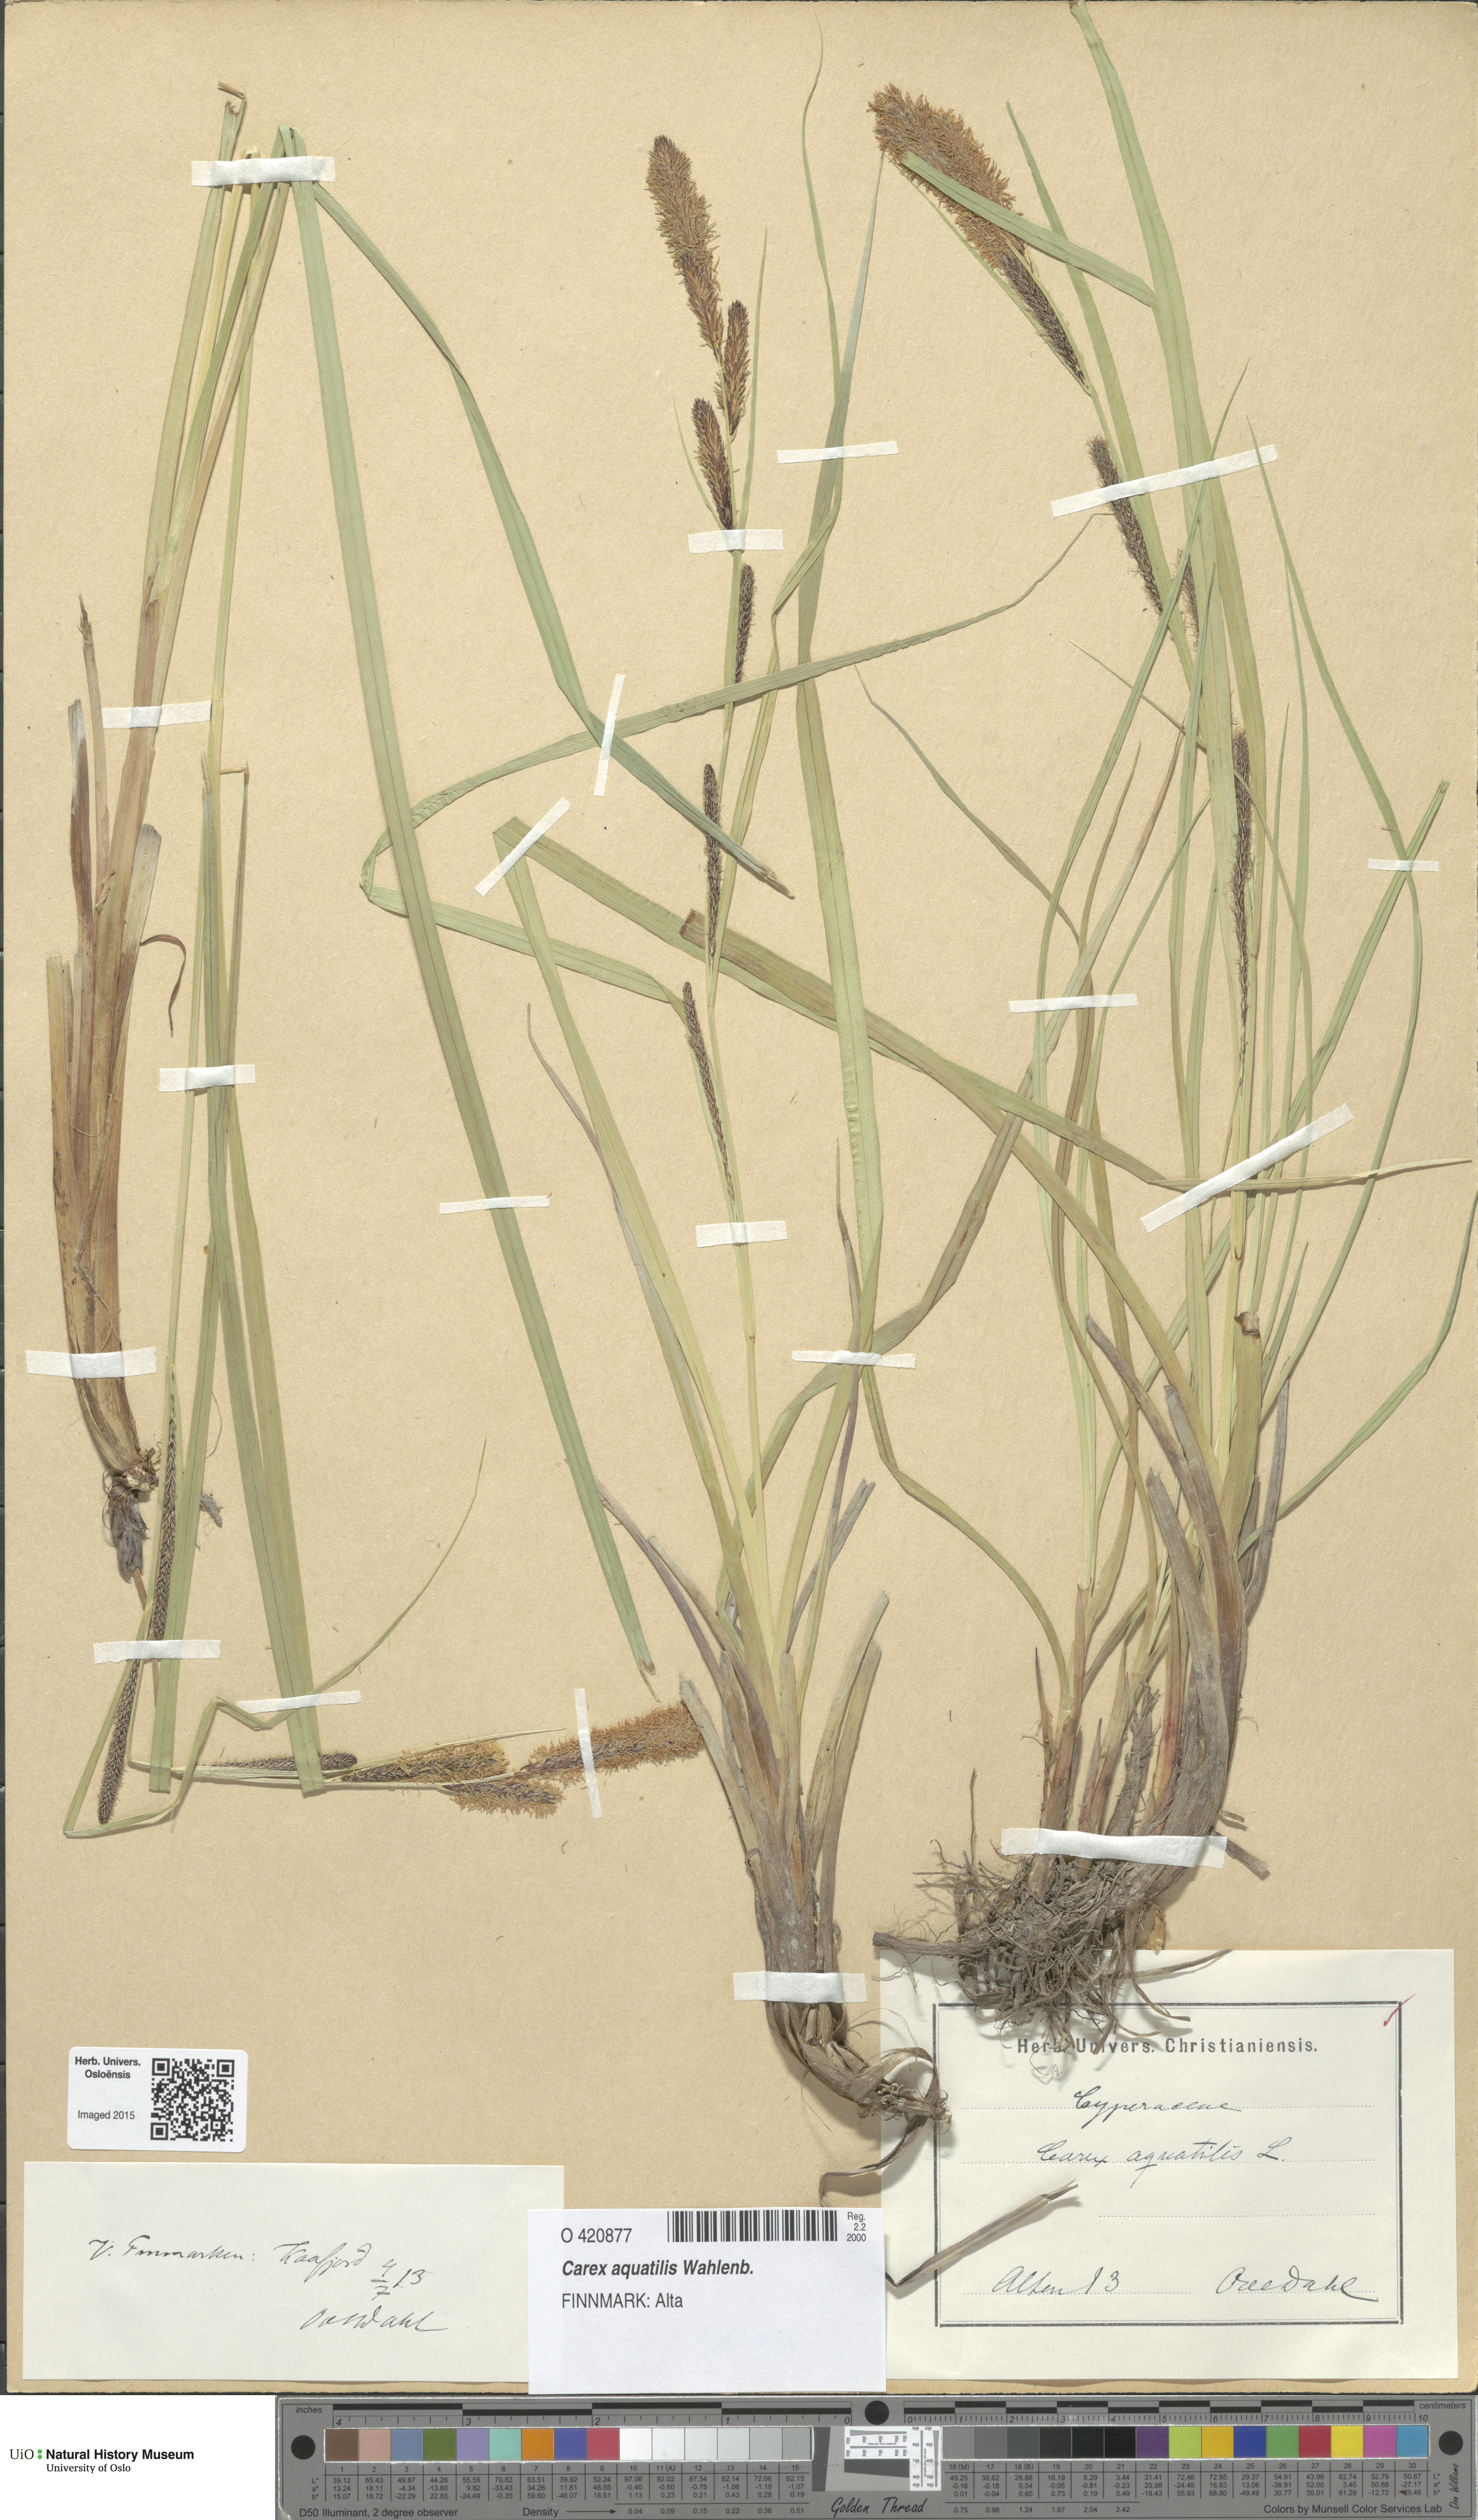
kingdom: Plantae
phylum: Tracheophyta
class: Liliopsida
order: Poales
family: Cyperaceae
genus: Carex
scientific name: Carex aquatilis
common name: Water sedge
